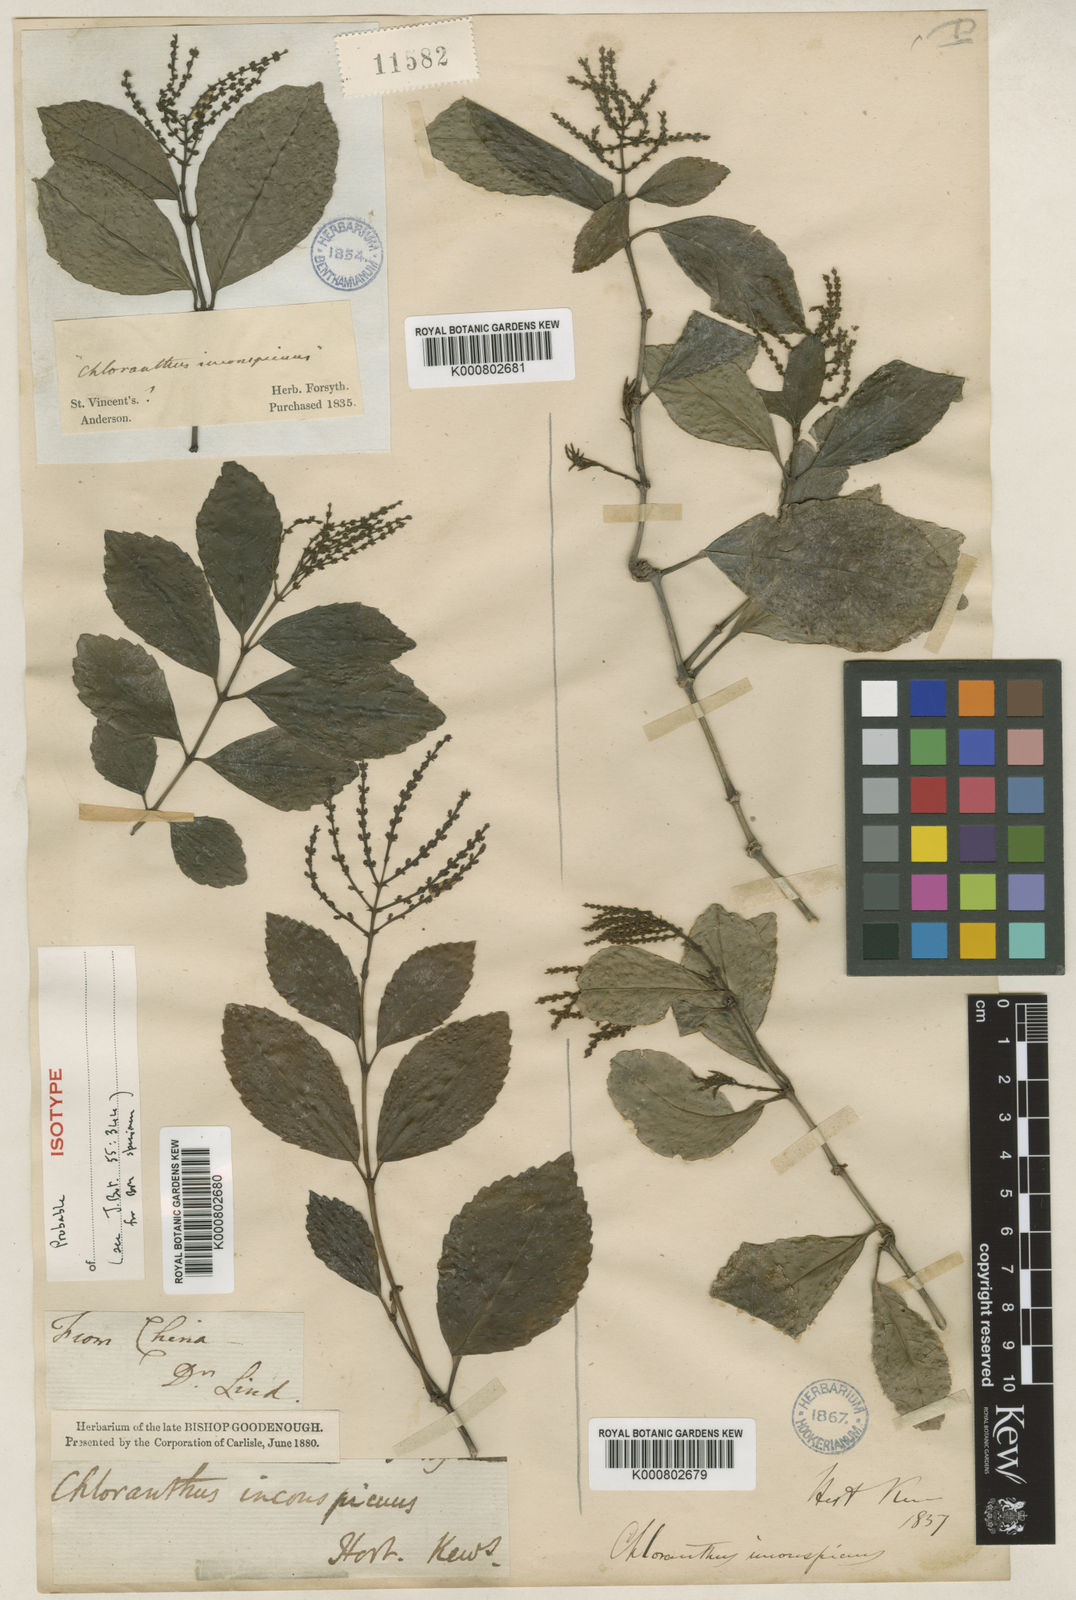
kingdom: Plantae
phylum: Tracheophyta
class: Magnoliopsida
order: Chloranthales
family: Chloranthaceae
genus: Chloranthus
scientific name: Chloranthus spicatus
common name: Chulantree
